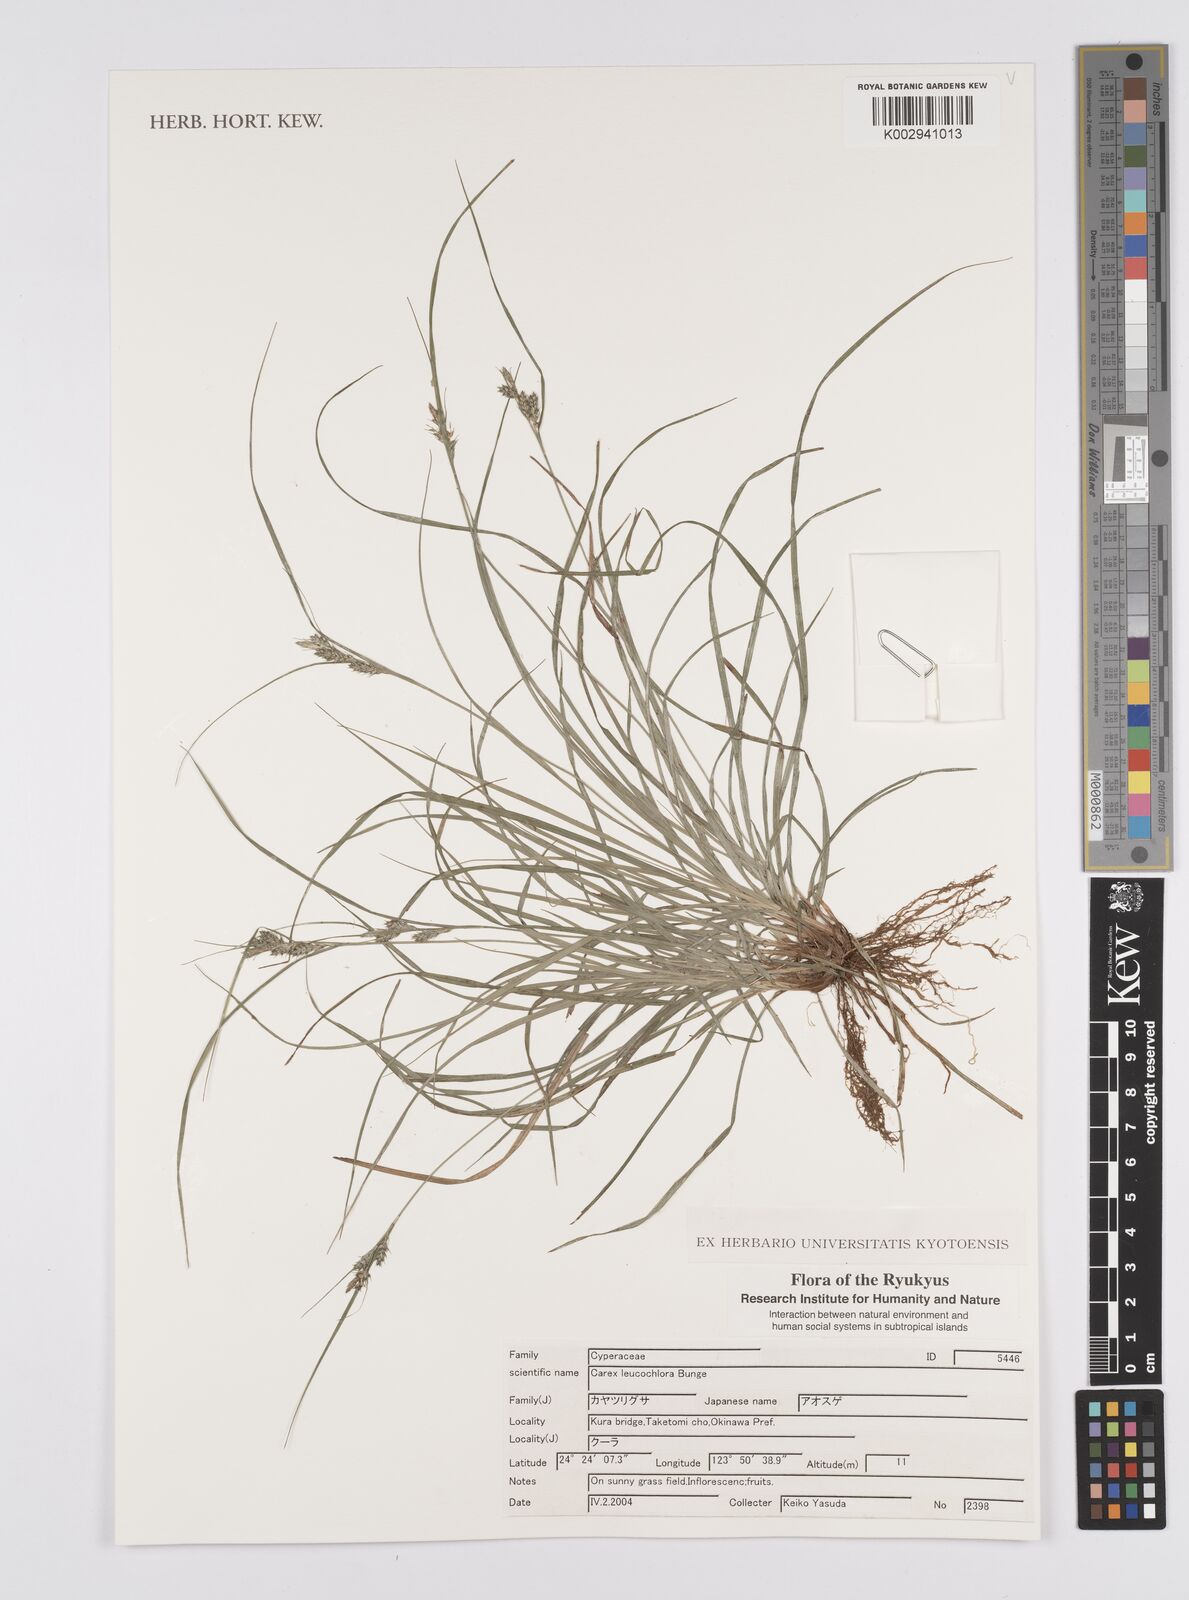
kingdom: Plantae
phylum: Tracheophyta
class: Liliopsida
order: Poales
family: Cyperaceae
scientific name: Cyperaceae
